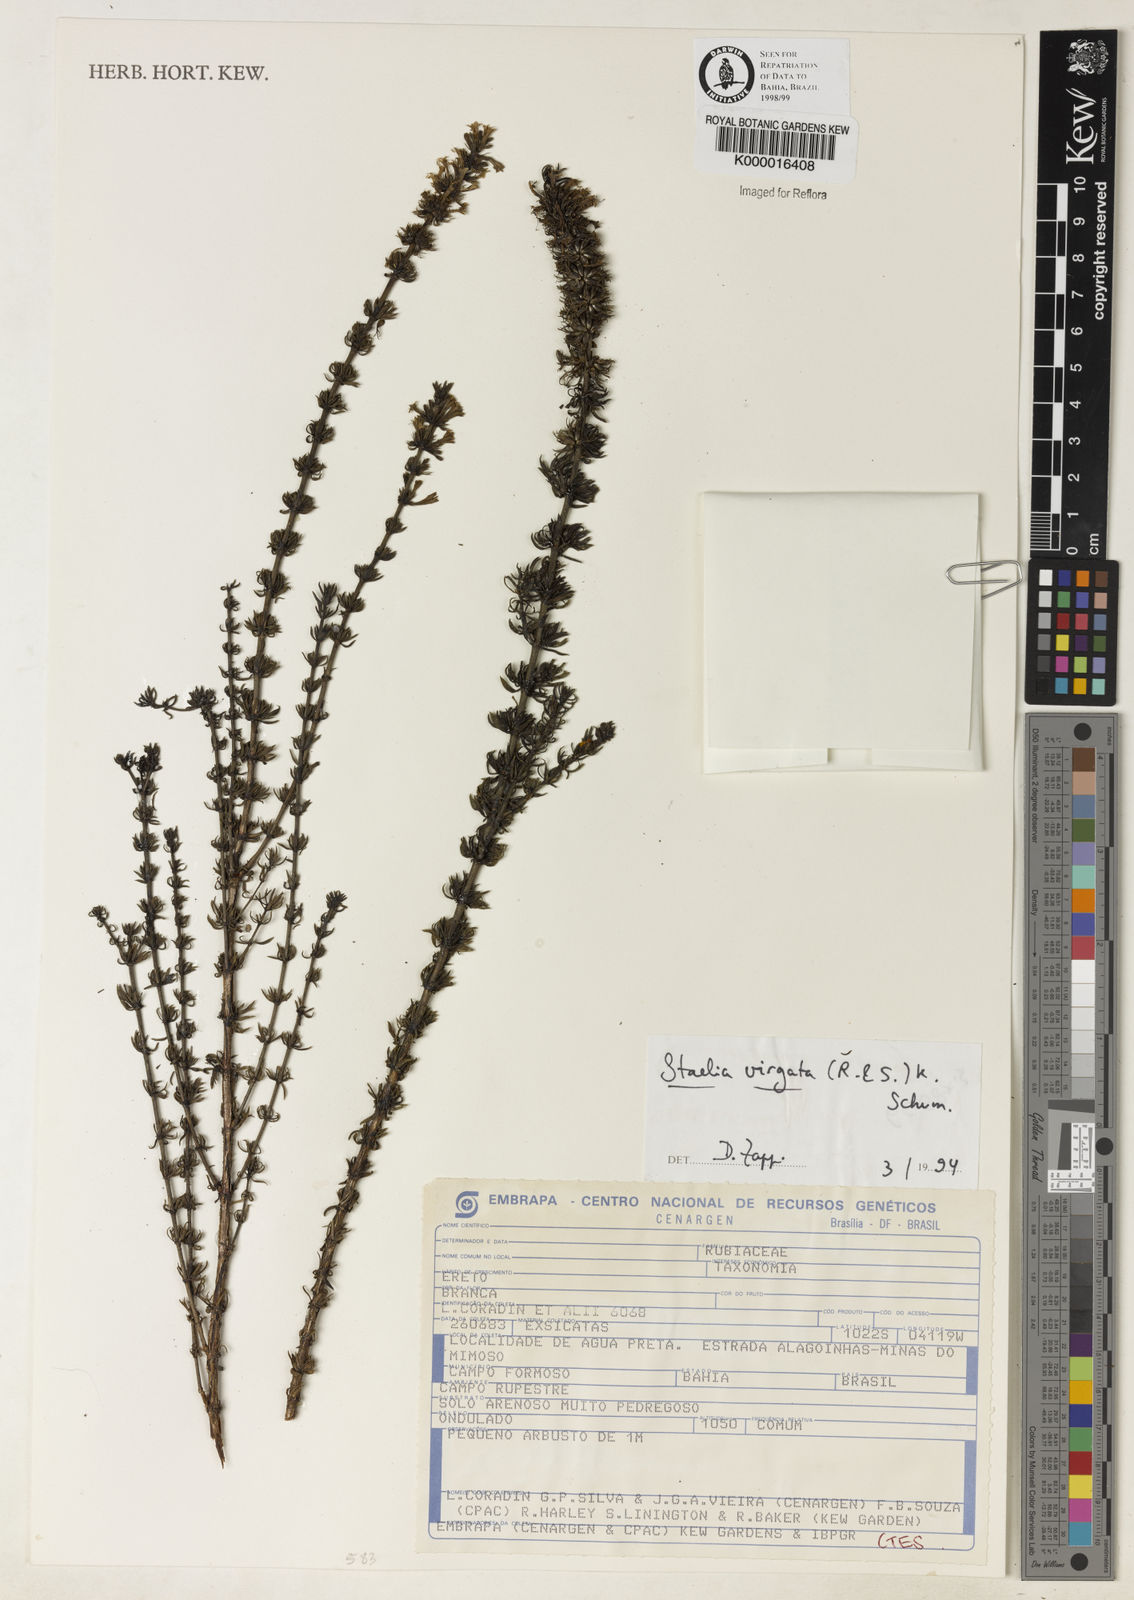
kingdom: Plantae
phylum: Tracheophyta
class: Magnoliopsida
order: Gentianales
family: Rubiaceae
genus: Staelia
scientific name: Staelia virgata
